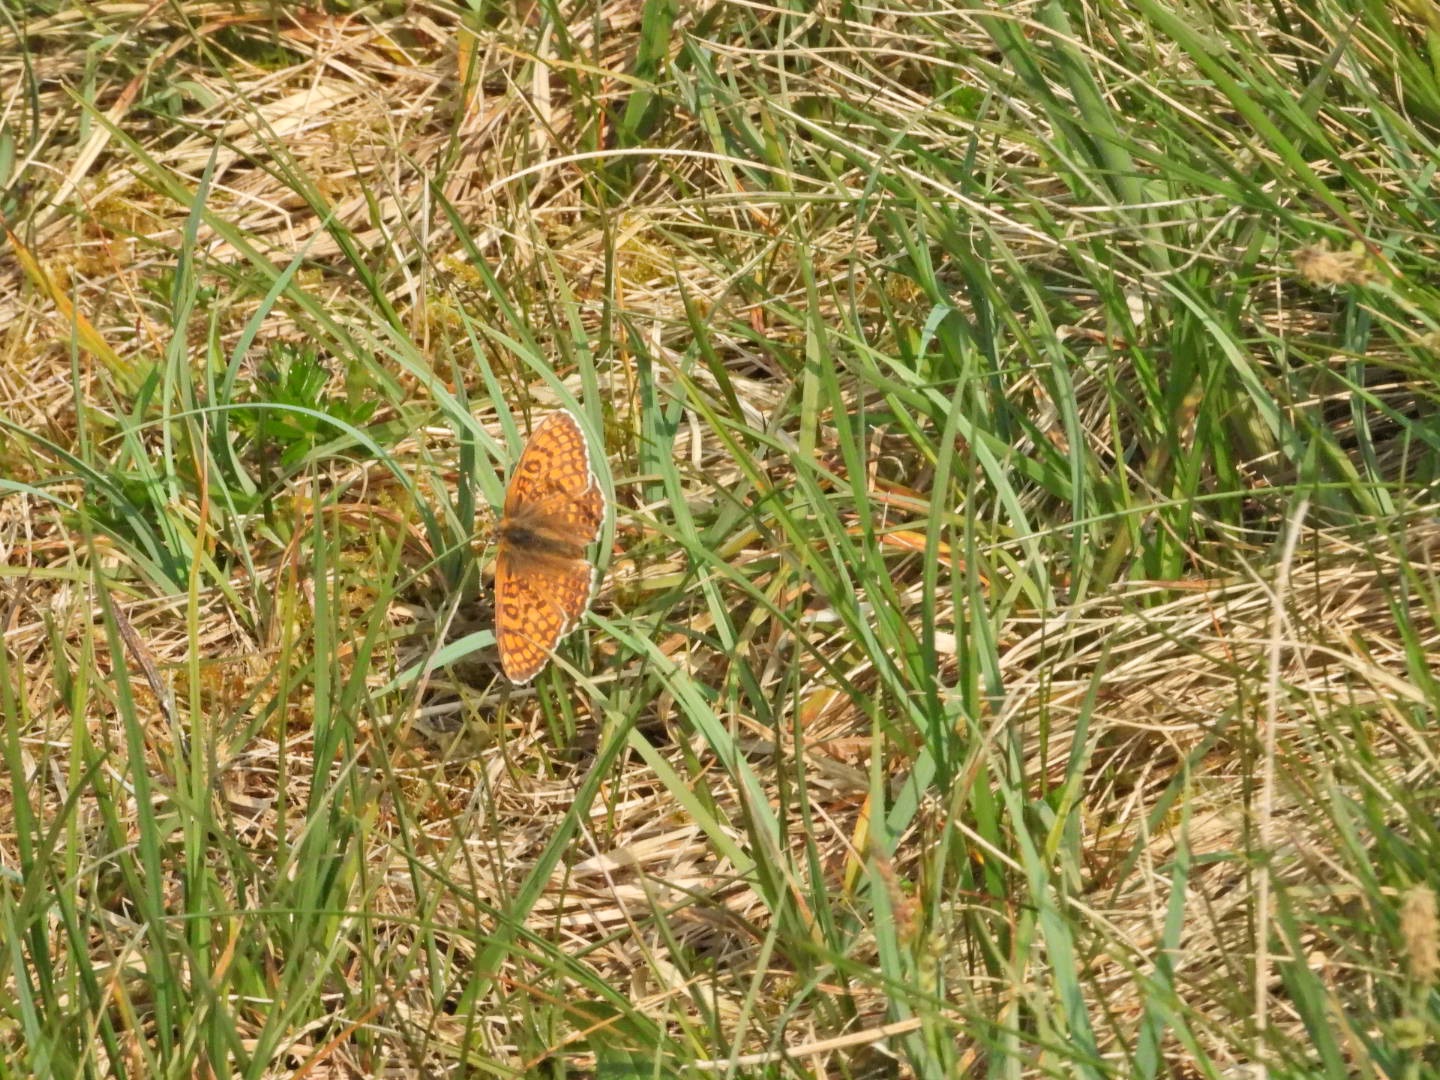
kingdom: Animalia
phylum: Arthropoda
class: Insecta
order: Lepidoptera
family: Nymphalidae
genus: Melitaea
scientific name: Melitaea cinxia
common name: Okkergul pletvinge
